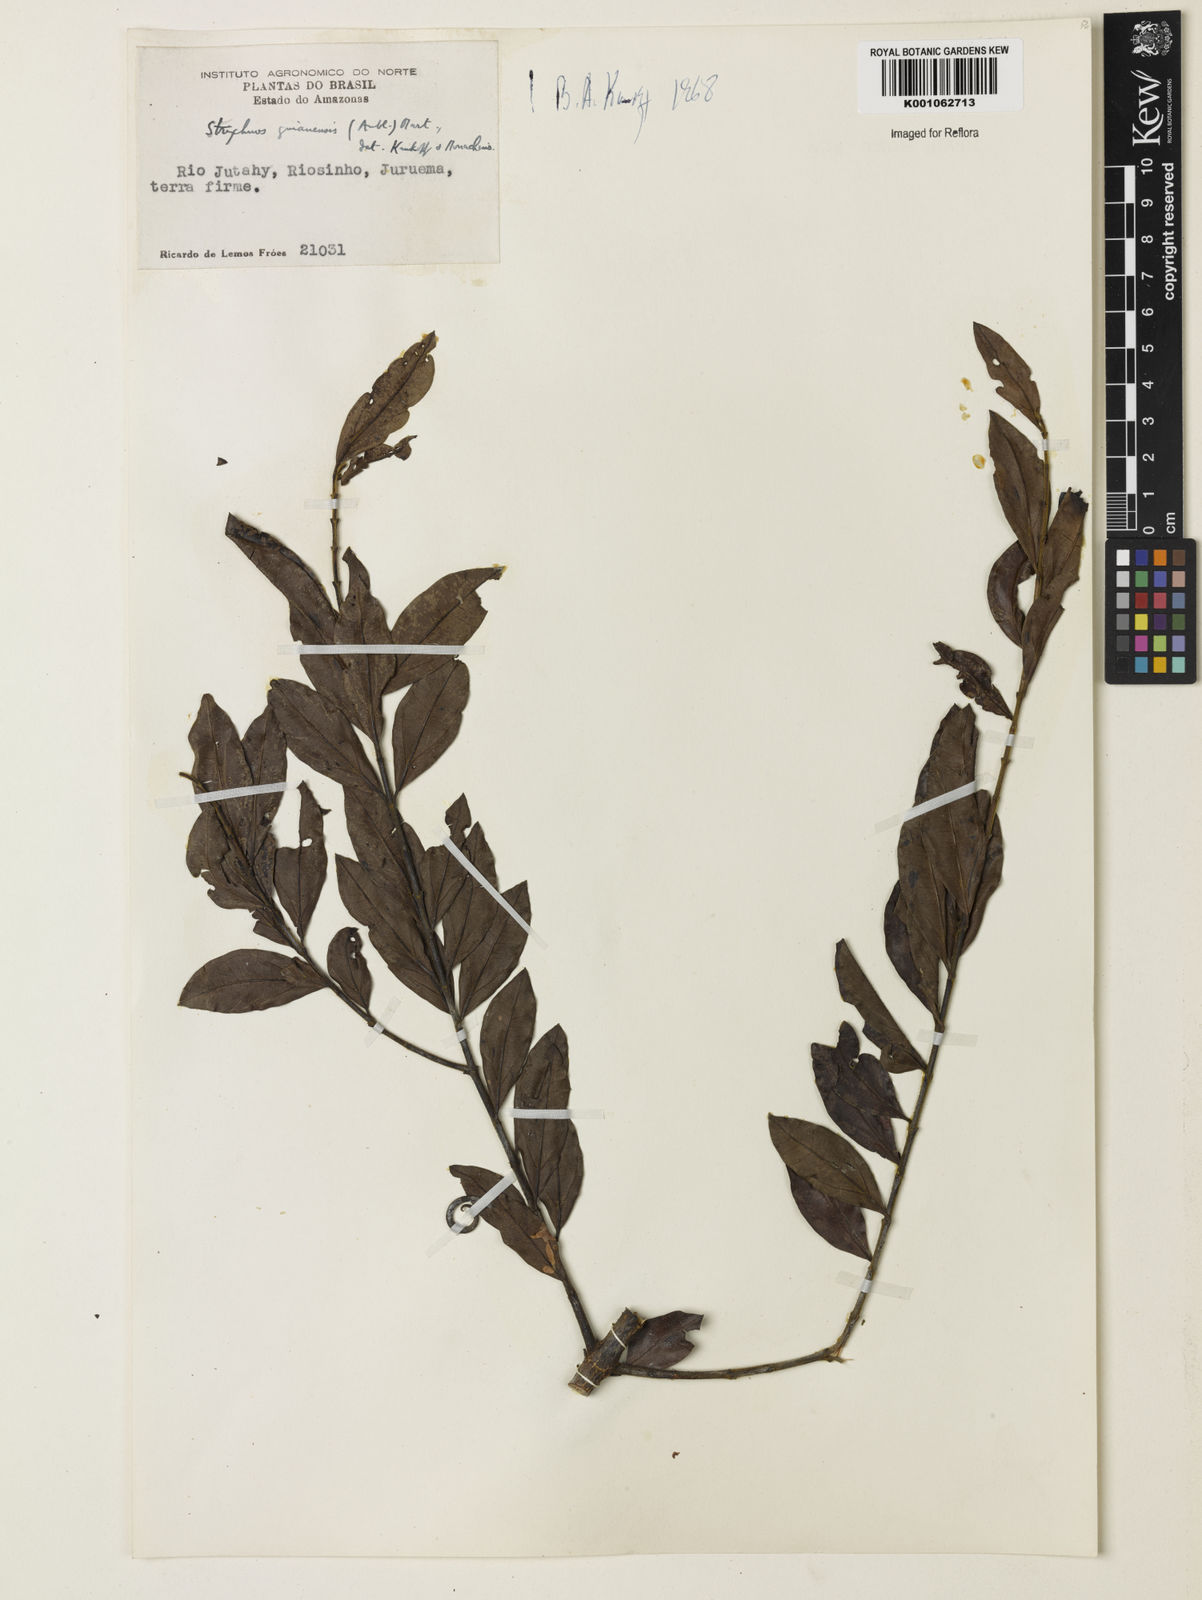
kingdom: Plantae
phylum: Tracheophyta
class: Magnoliopsida
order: Gentianales
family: Loganiaceae
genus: Strychnos
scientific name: Strychnos guianensis
